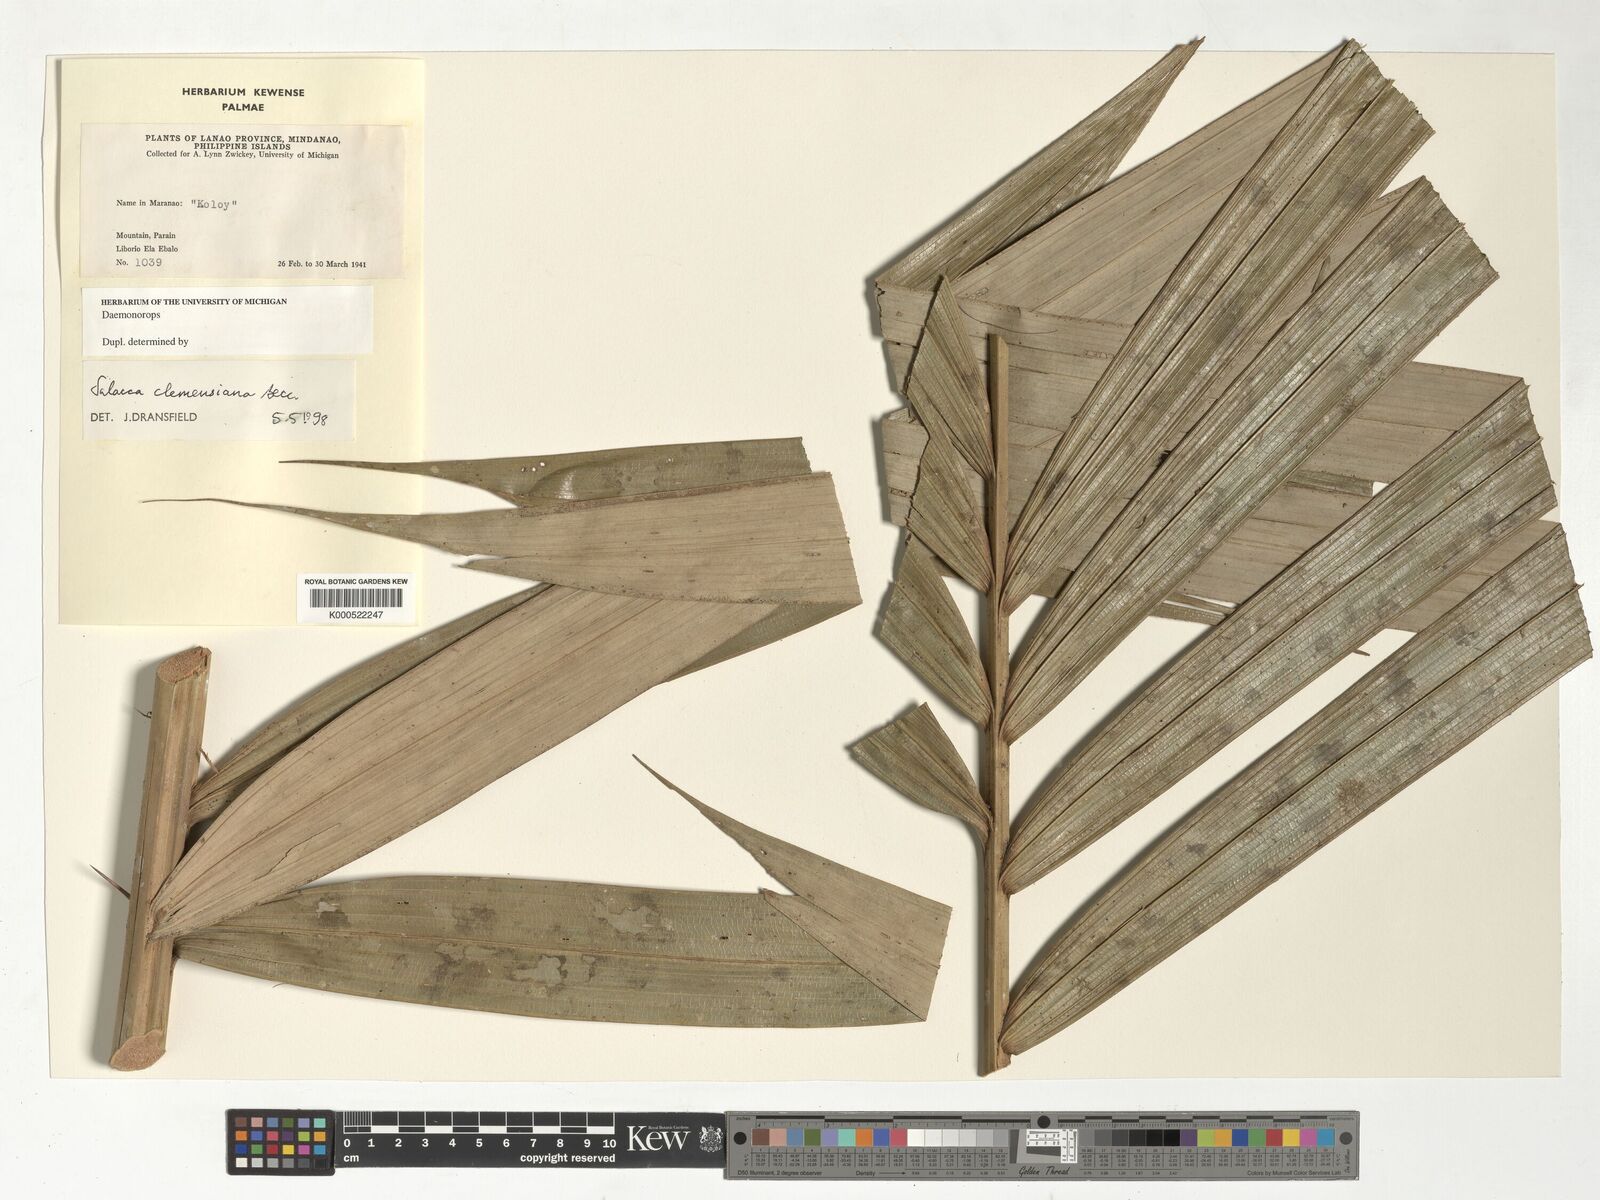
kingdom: Plantae
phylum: Tracheophyta
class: Liliopsida
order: Arecales
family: Arecaceae
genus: Salacca
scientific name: Salacca clemensiana
